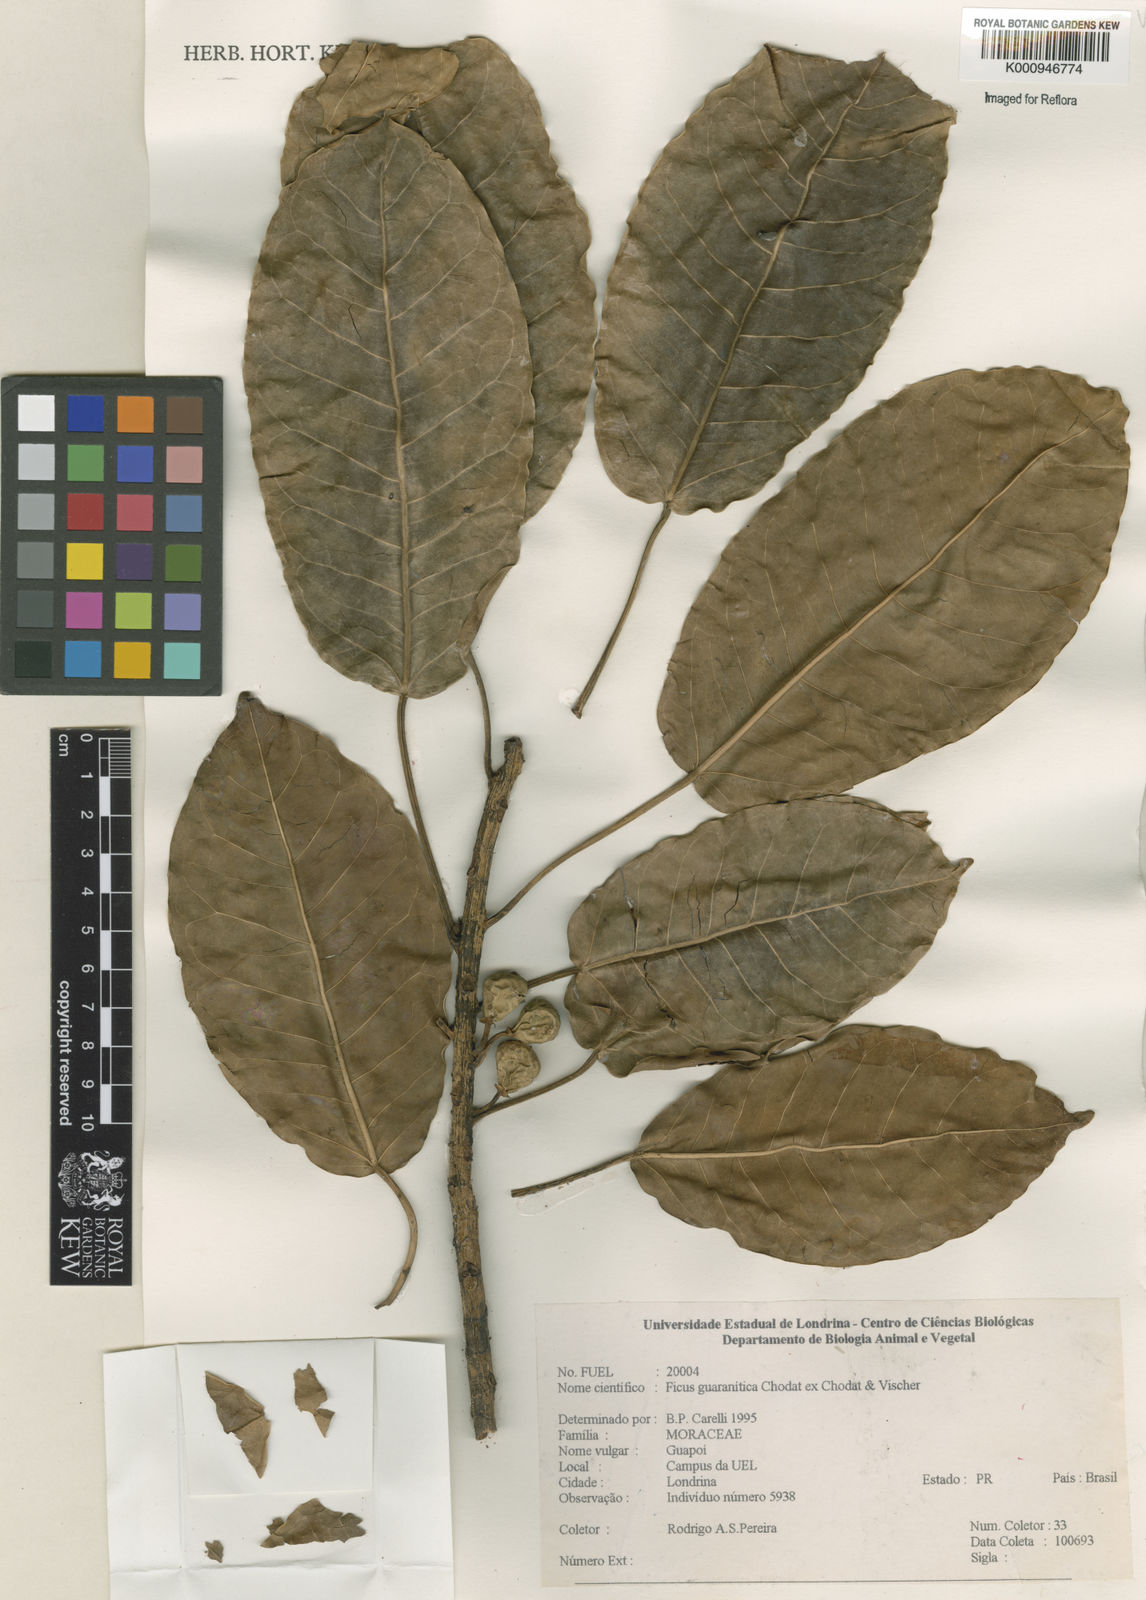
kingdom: Plantae
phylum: Tracheophyta
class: Magnoliopsida
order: Rosales
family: Moraceae
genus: Ficus
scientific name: Ficus guaranitica
